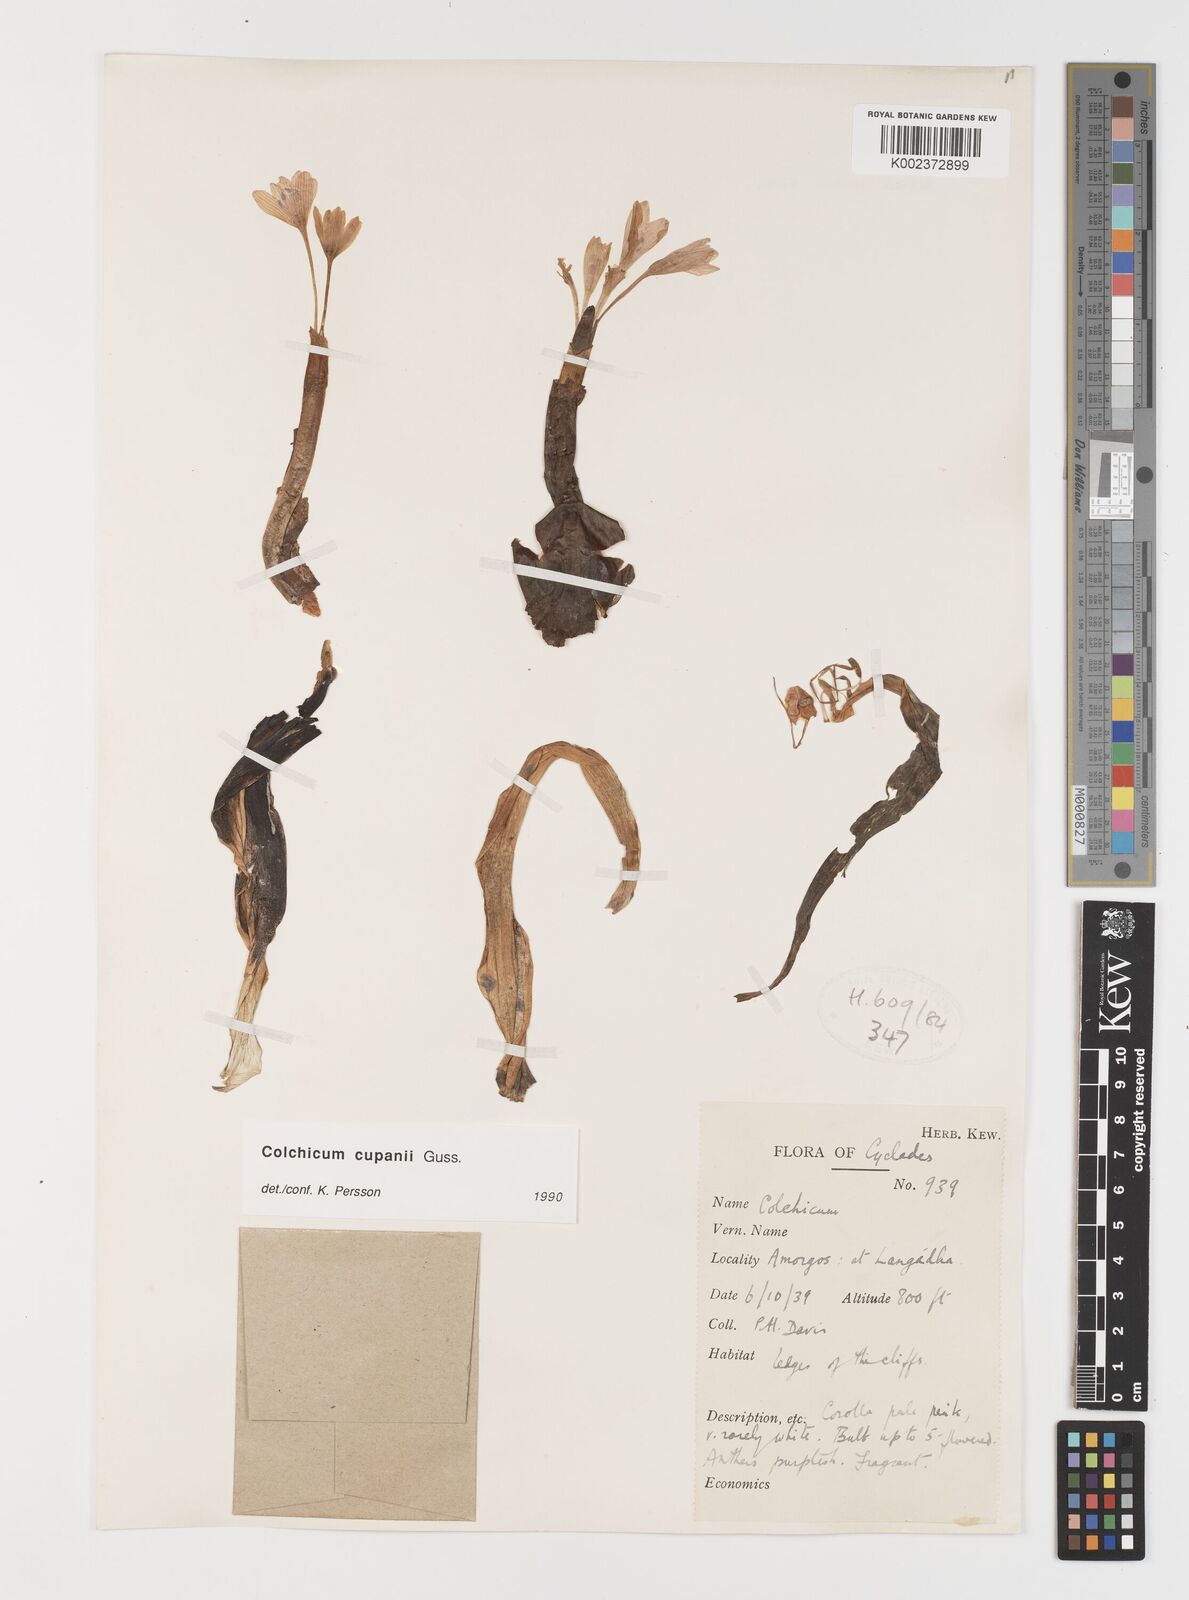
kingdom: Plantae
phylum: Tracheophyta
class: Liliopsida
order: Liliales
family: Colchicaceae
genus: Colchicum
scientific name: Colchicum cupanii
